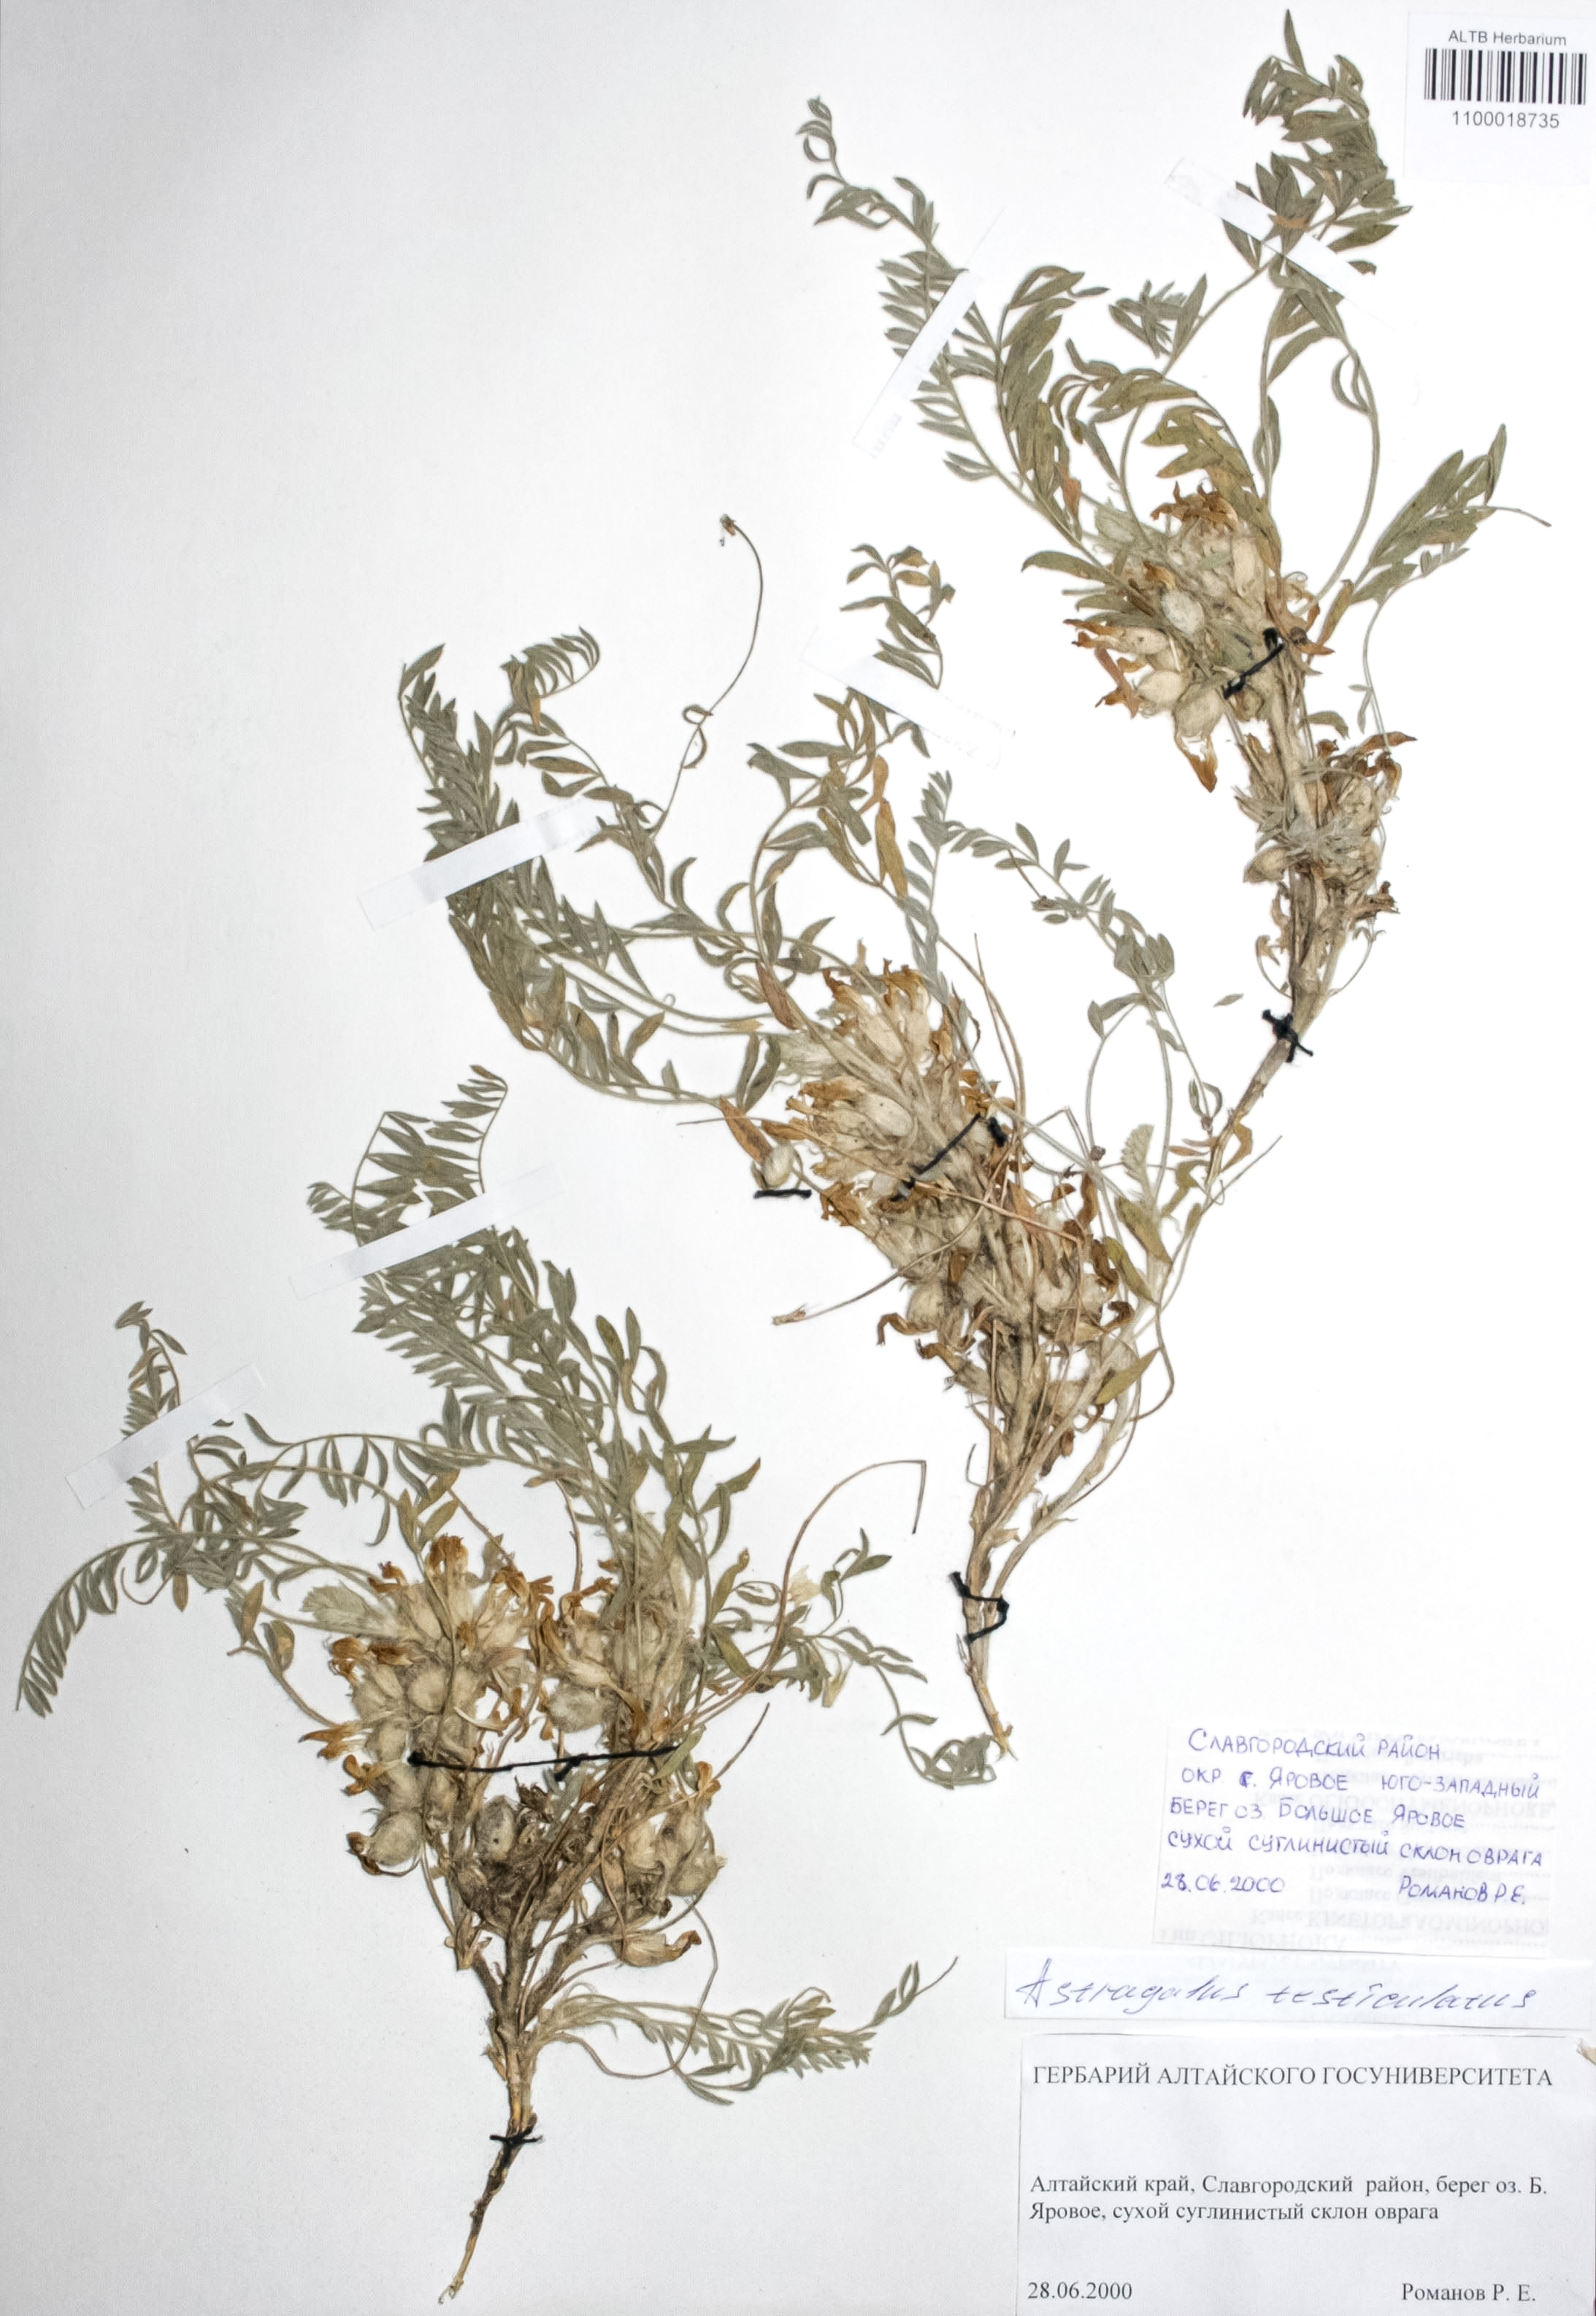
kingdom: Plantae
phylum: Tracheophyta
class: Magnoliopsida
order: Fabales
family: Fabaceae
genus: Astragalus
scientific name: Astragalus testiculatus
